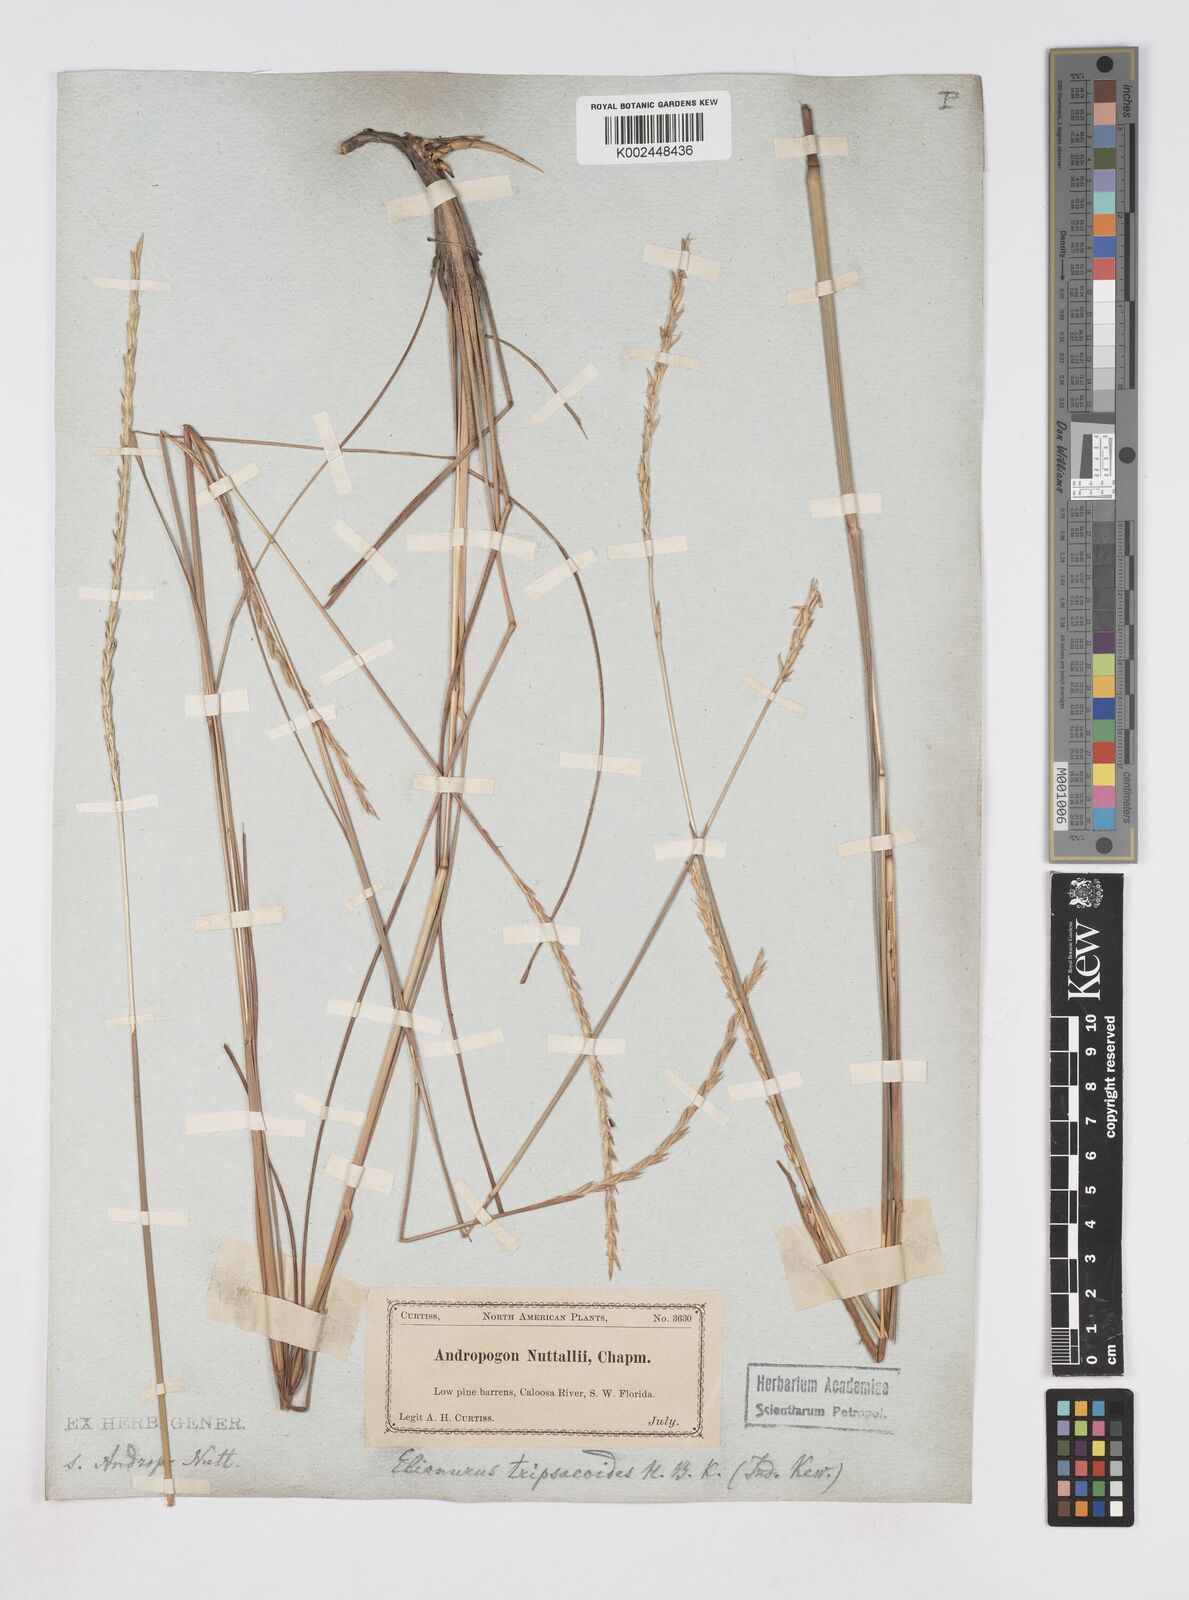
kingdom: Plantae
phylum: Tracheophyta
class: Liliopsida
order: Poales
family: Poaceae
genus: Elionurus
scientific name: Elionurus tripsacoides
